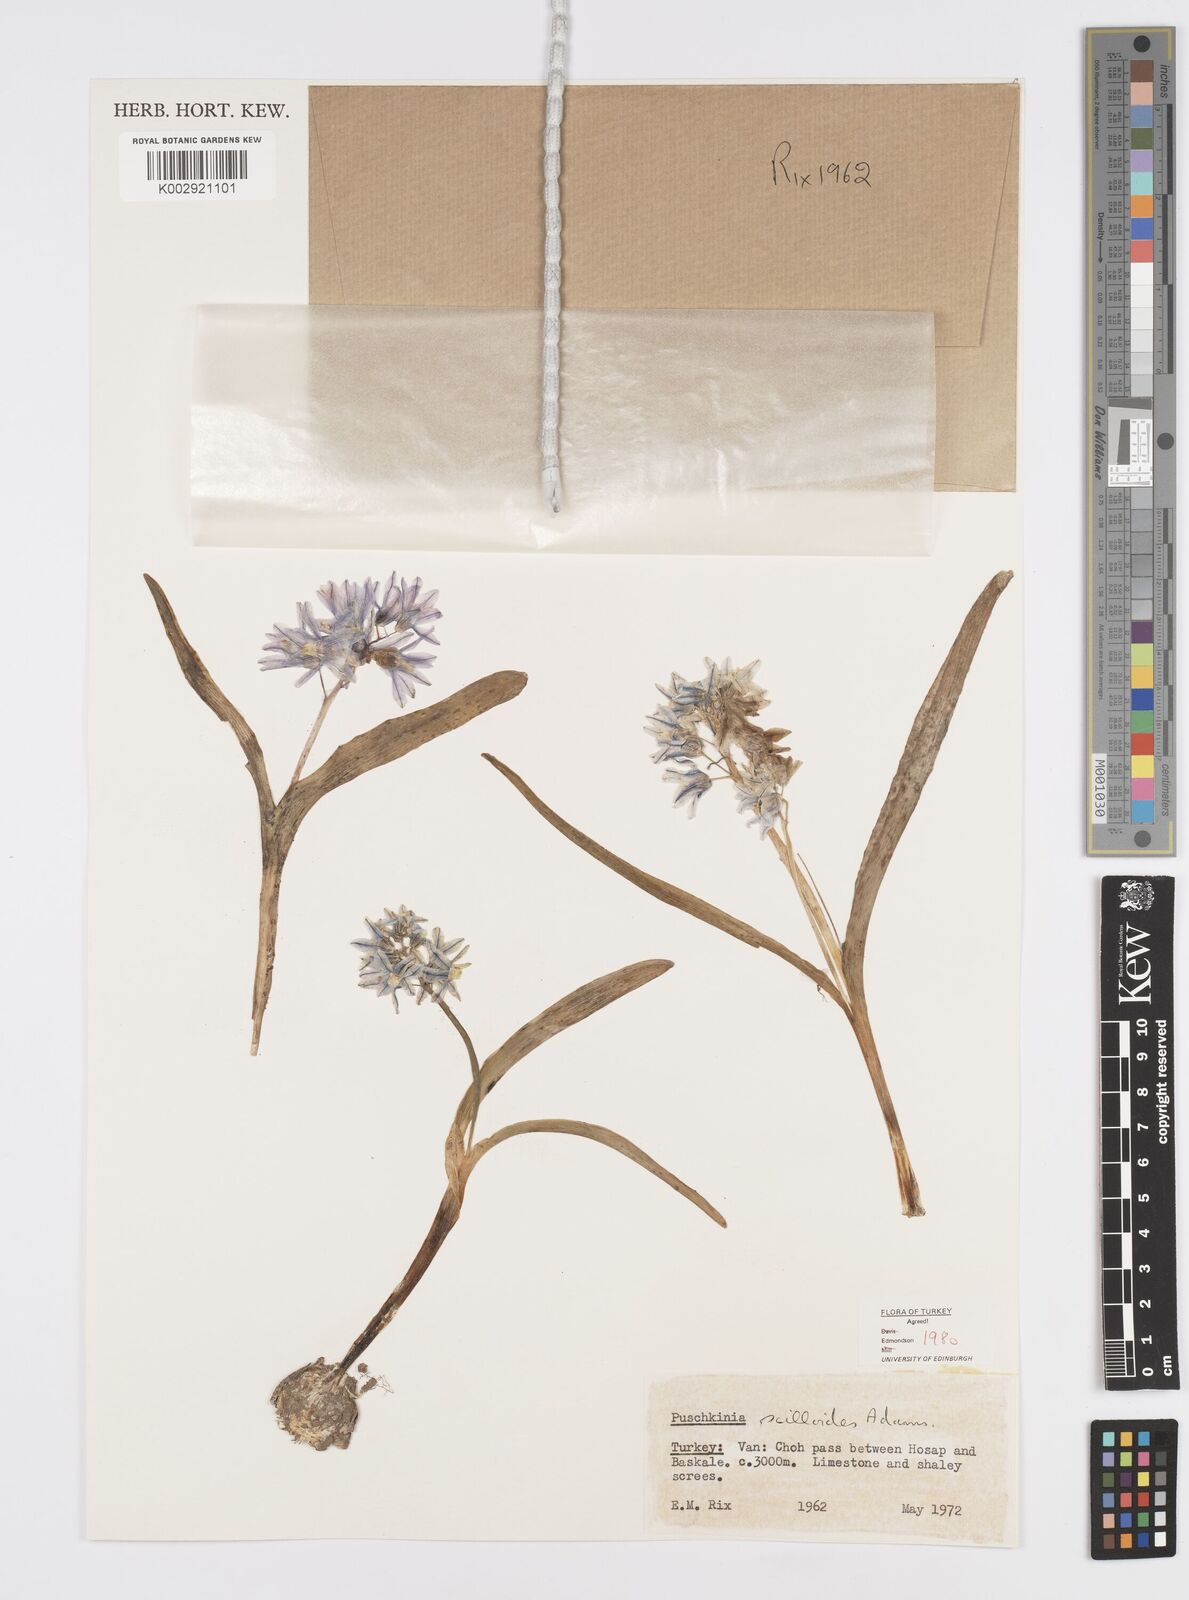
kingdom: Plantae
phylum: Tracheophyta
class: Liliopsida
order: Asparagales
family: Asparagaceae
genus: Puschkinia
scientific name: Puschkinia scilloides
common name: Striped squill
